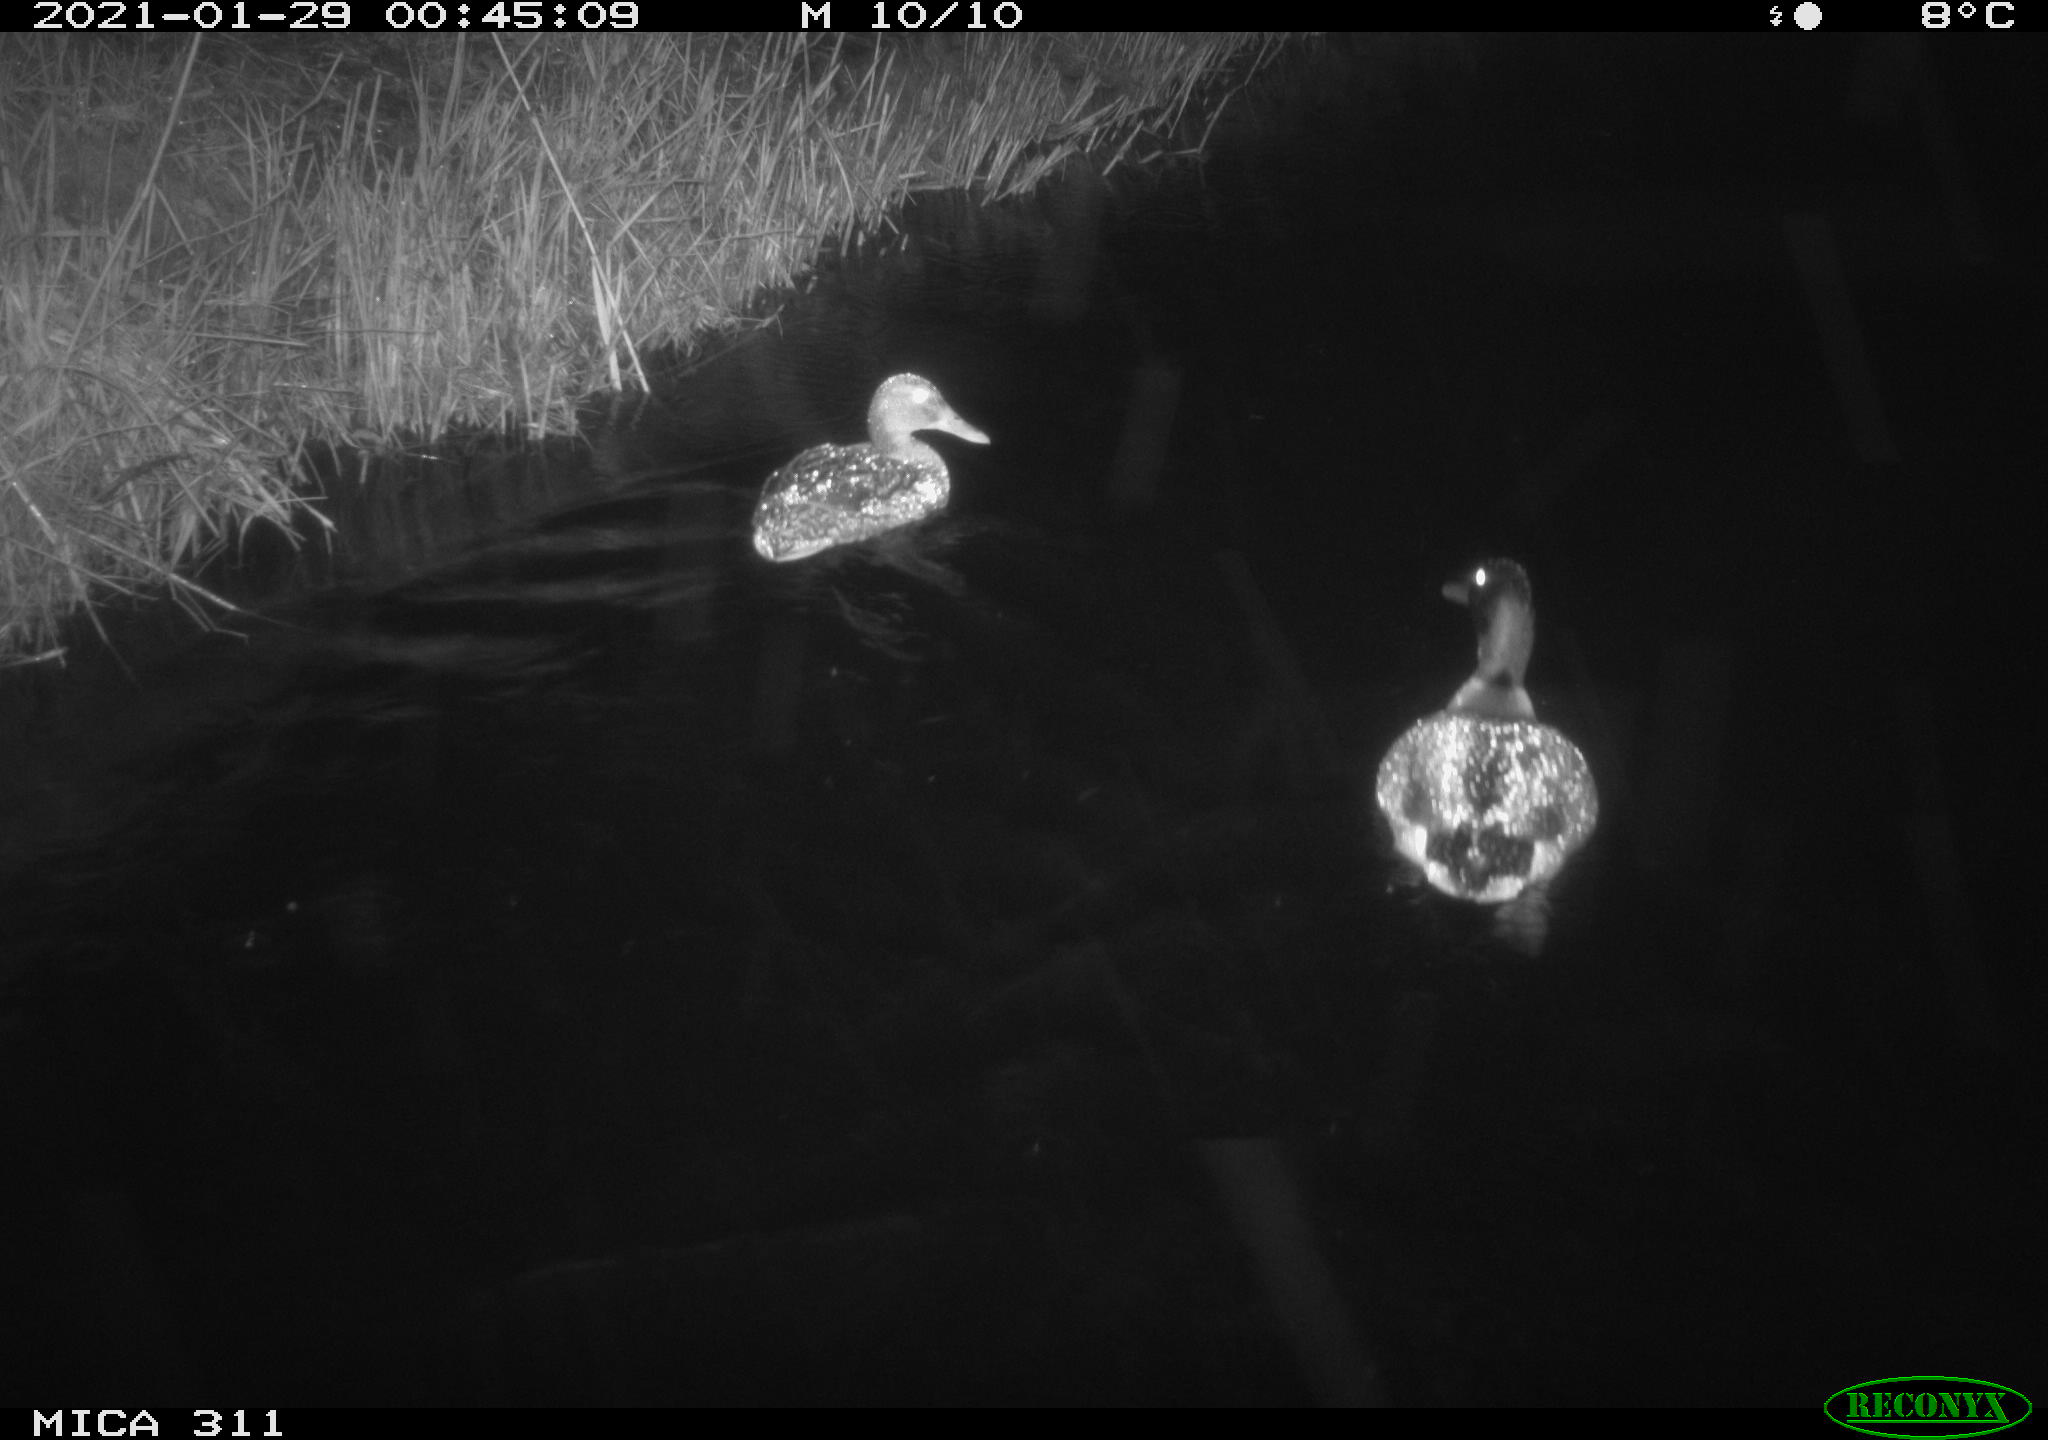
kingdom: Animalia
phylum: Chordata
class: Aves
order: Anseriformes
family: Anatidae
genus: Anas
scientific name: Anas
